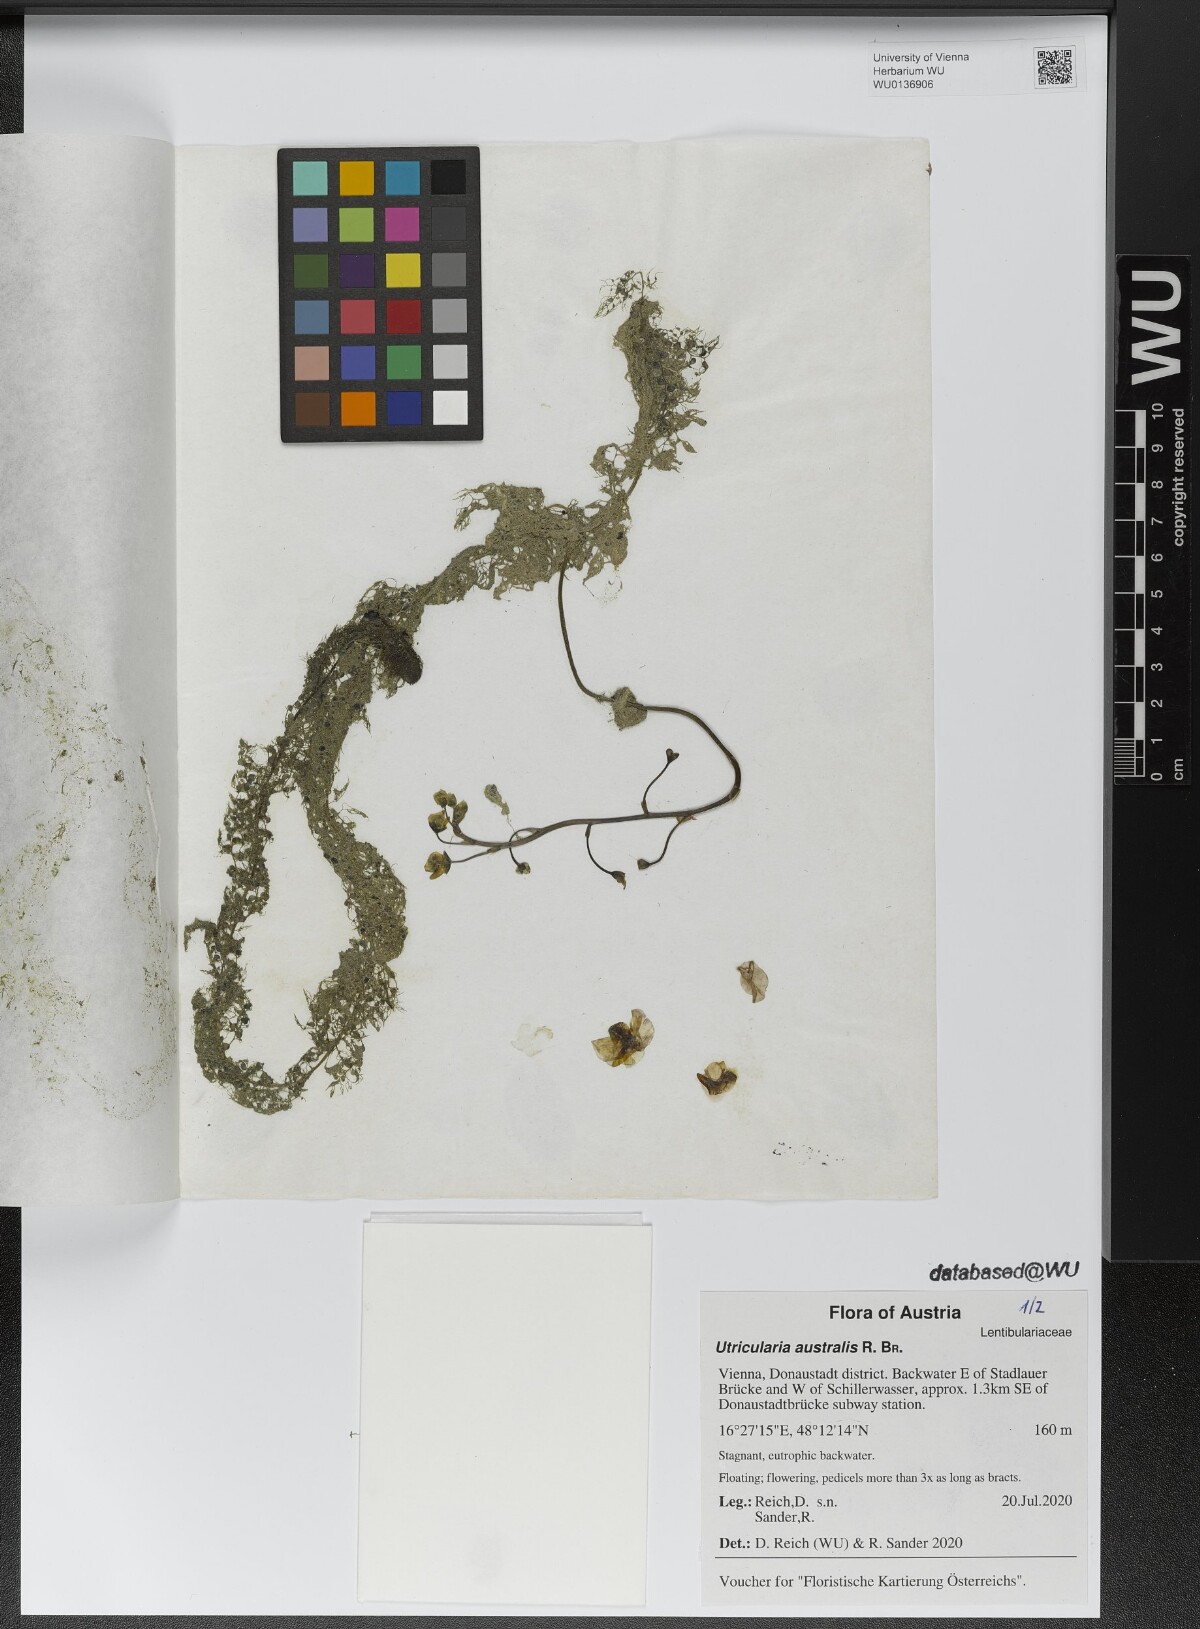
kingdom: Plantae
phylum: Tracheophyta
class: Magnoliopsida
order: Lamiales
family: Lentibulariaceae
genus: Utricularia
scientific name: Utricularia australis
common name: Bladderwort
